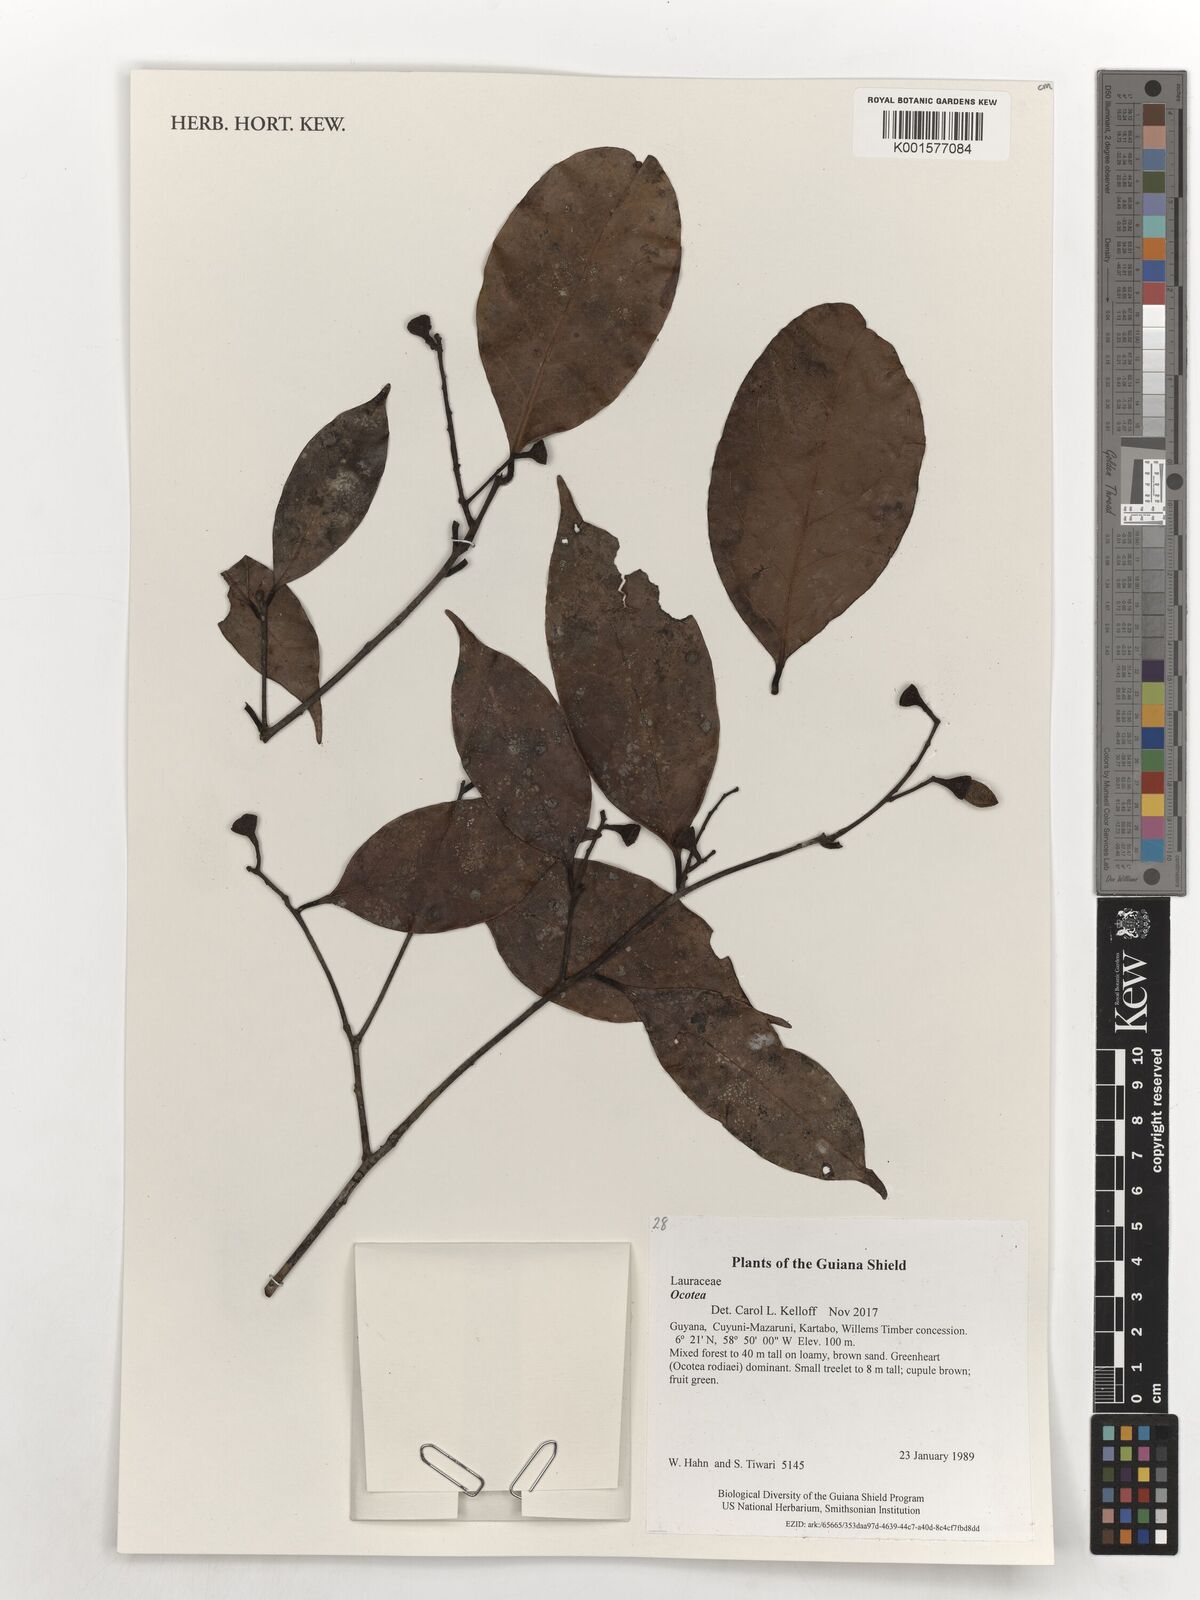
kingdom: Plantae
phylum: Tracheophyta
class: Magnoliopsida
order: Laurales
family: Lauraceae
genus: Ocotea
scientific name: Ocotea
